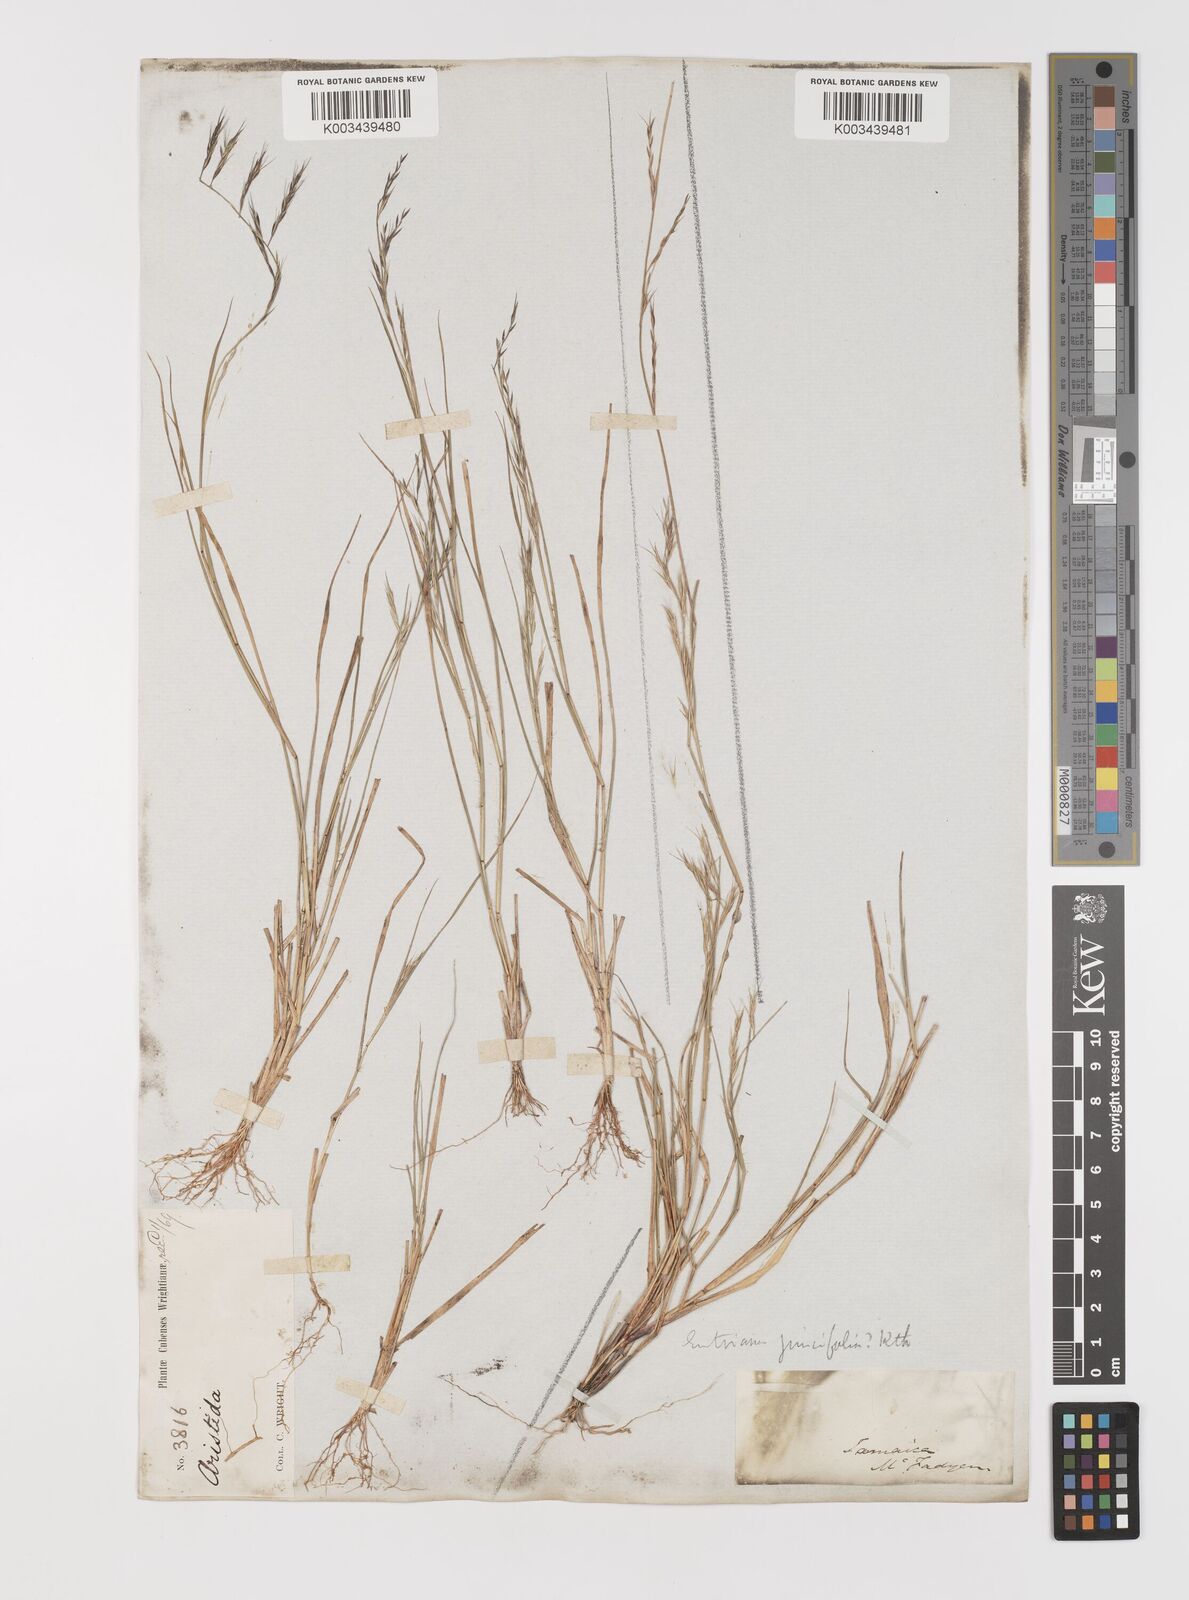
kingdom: Plantae
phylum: Tracheophyta
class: Liliopsida
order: Poales
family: Poaceae
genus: Bouteloua
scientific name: Bouteloua americana
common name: Mule grass
